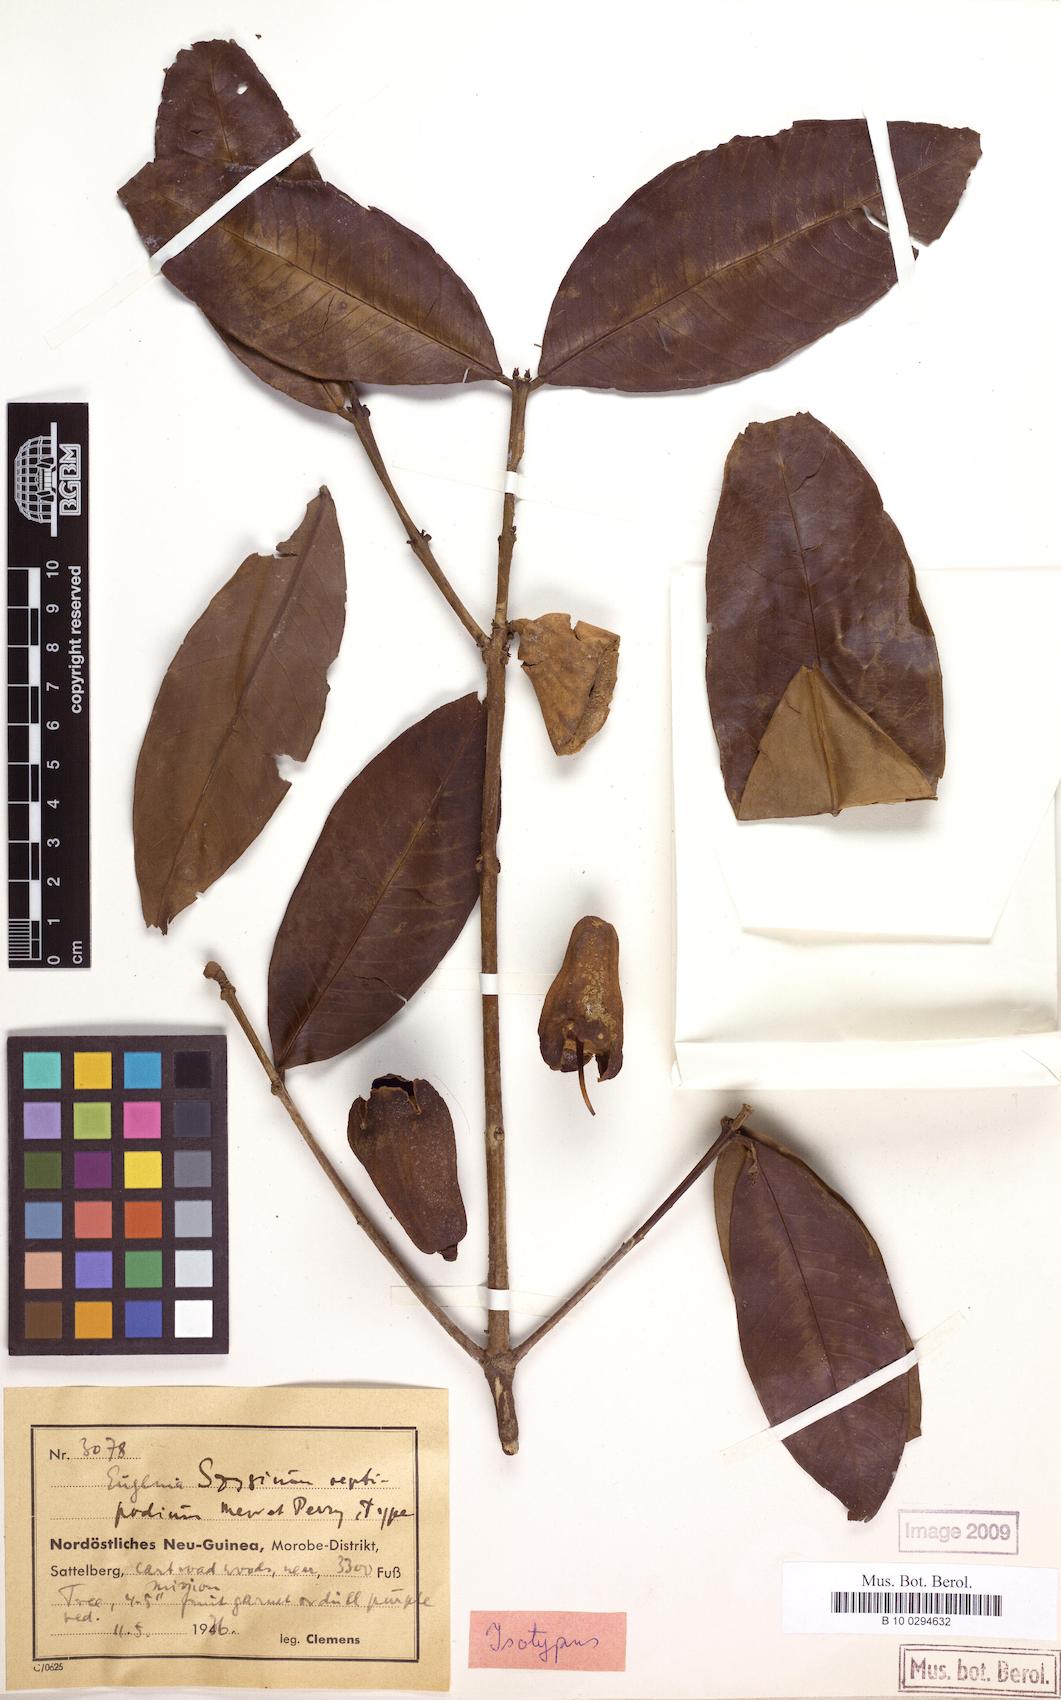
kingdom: Plantae
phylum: Tracheophyta
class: Magnoliopsida
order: Myrtales
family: Myrtaceae
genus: Syzygium
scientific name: Syzygium macrocalyx
